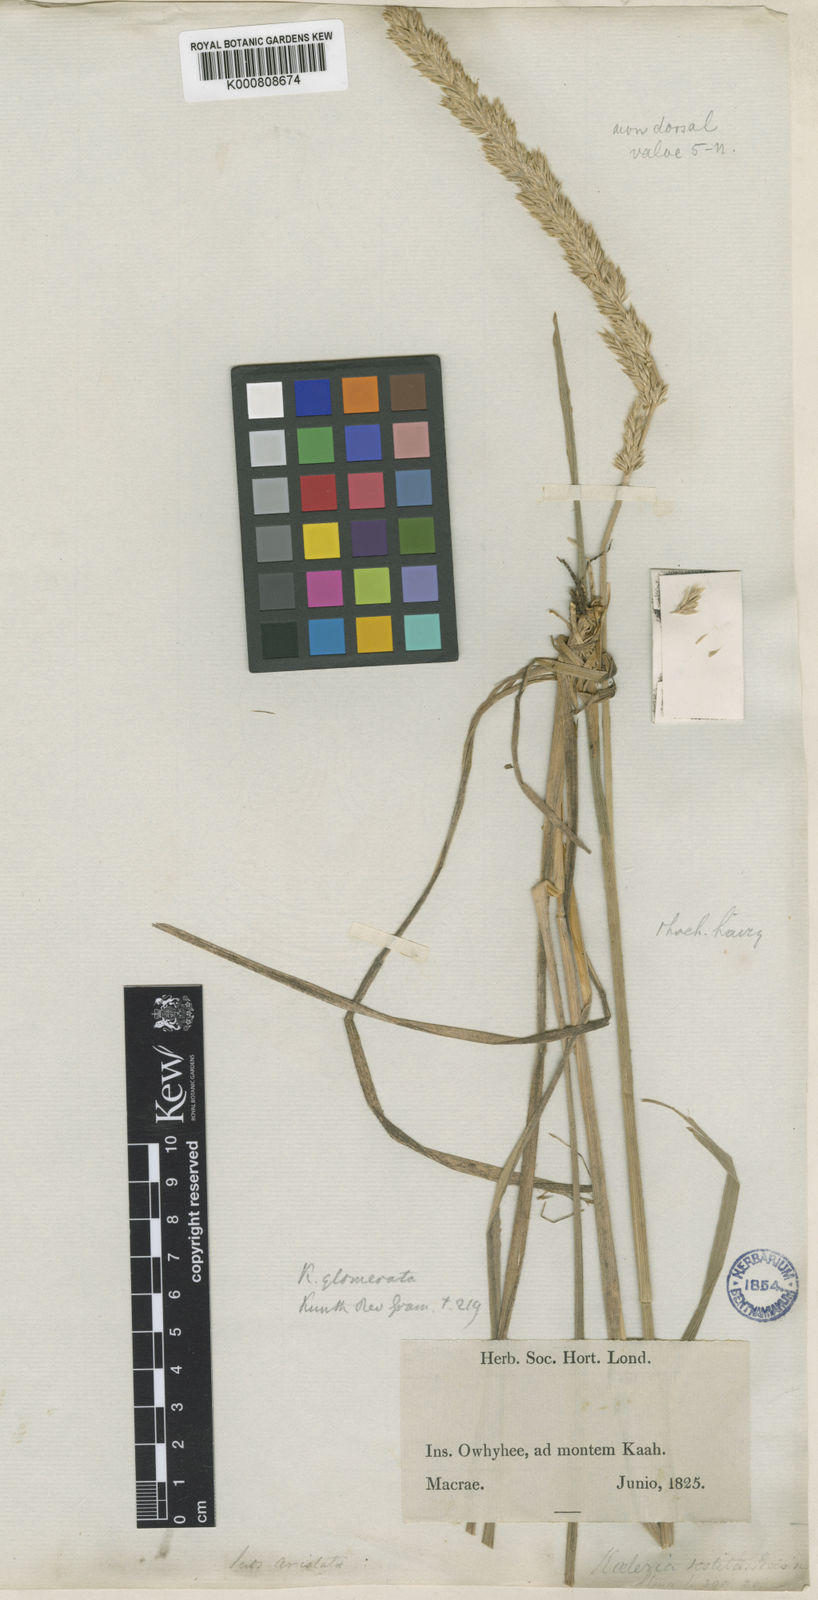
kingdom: Plantae
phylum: Tracheophyta
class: Liliopsida
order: Poales
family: Poaceae
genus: Trisetum
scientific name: Trisetum glomeratum
